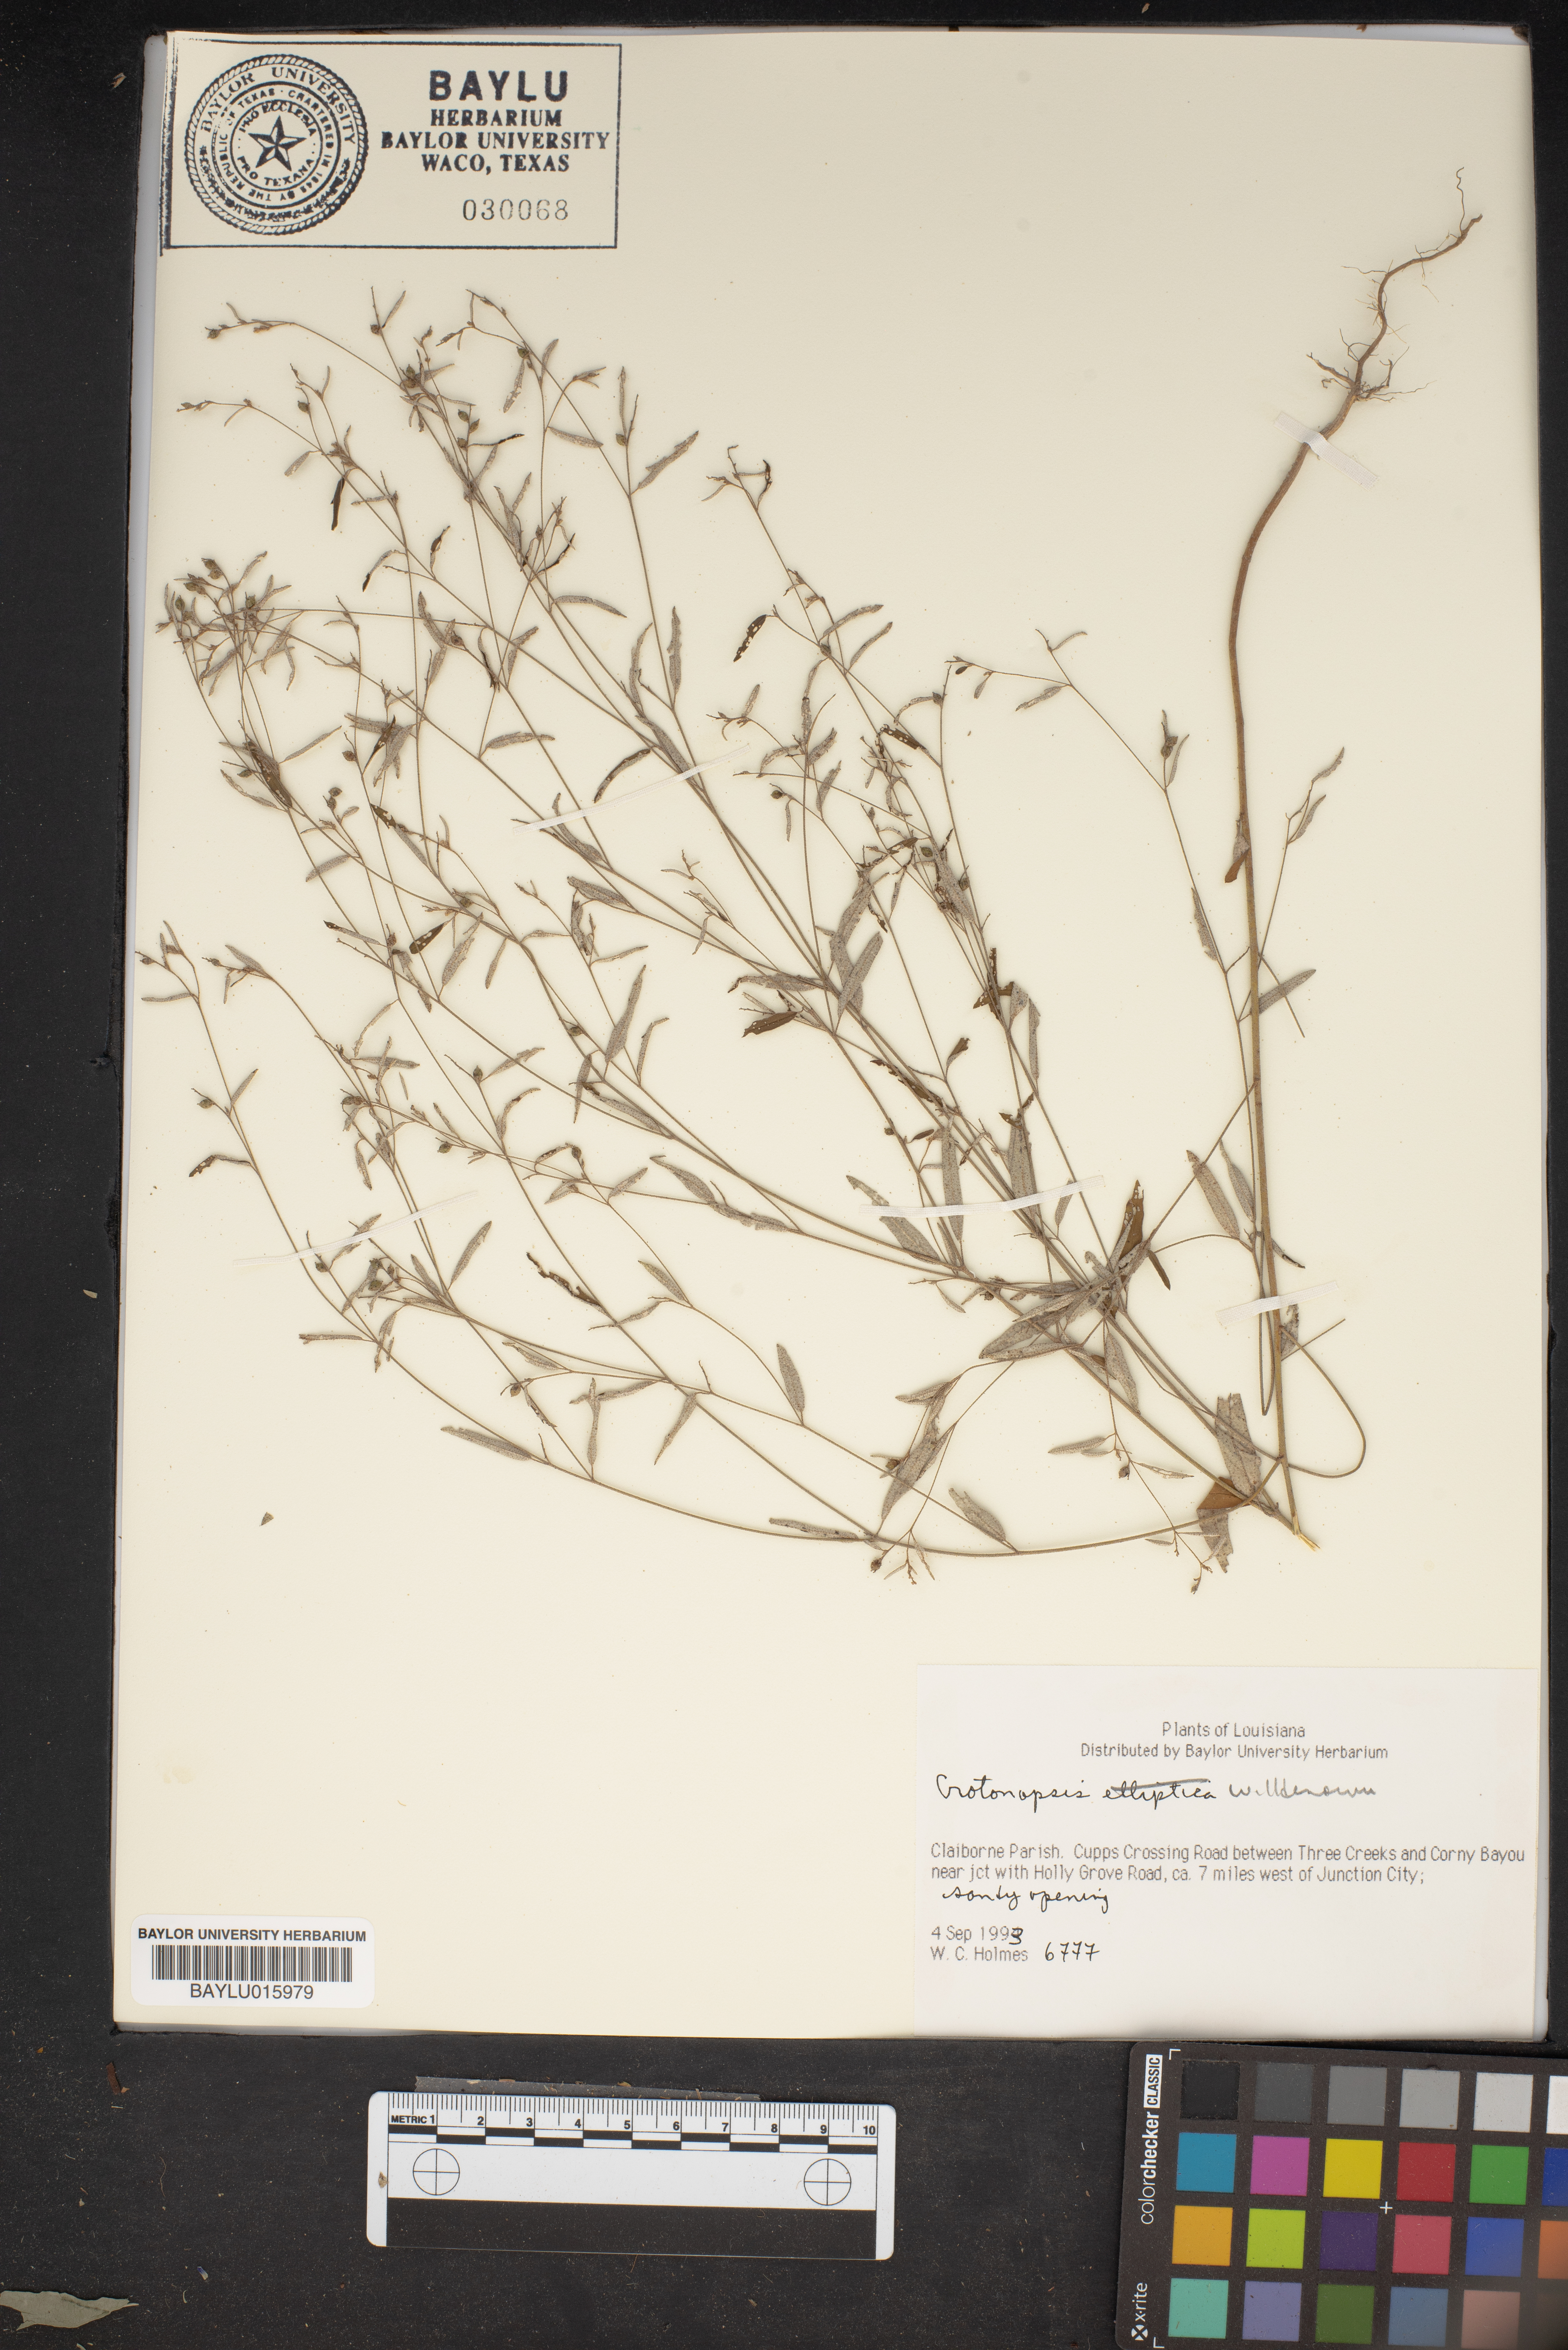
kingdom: Plantae
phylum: Tracheophyta
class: Magnoliopsida
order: Malpighiales
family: Euphorbiaceae
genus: Croton
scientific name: Croton michauxii
